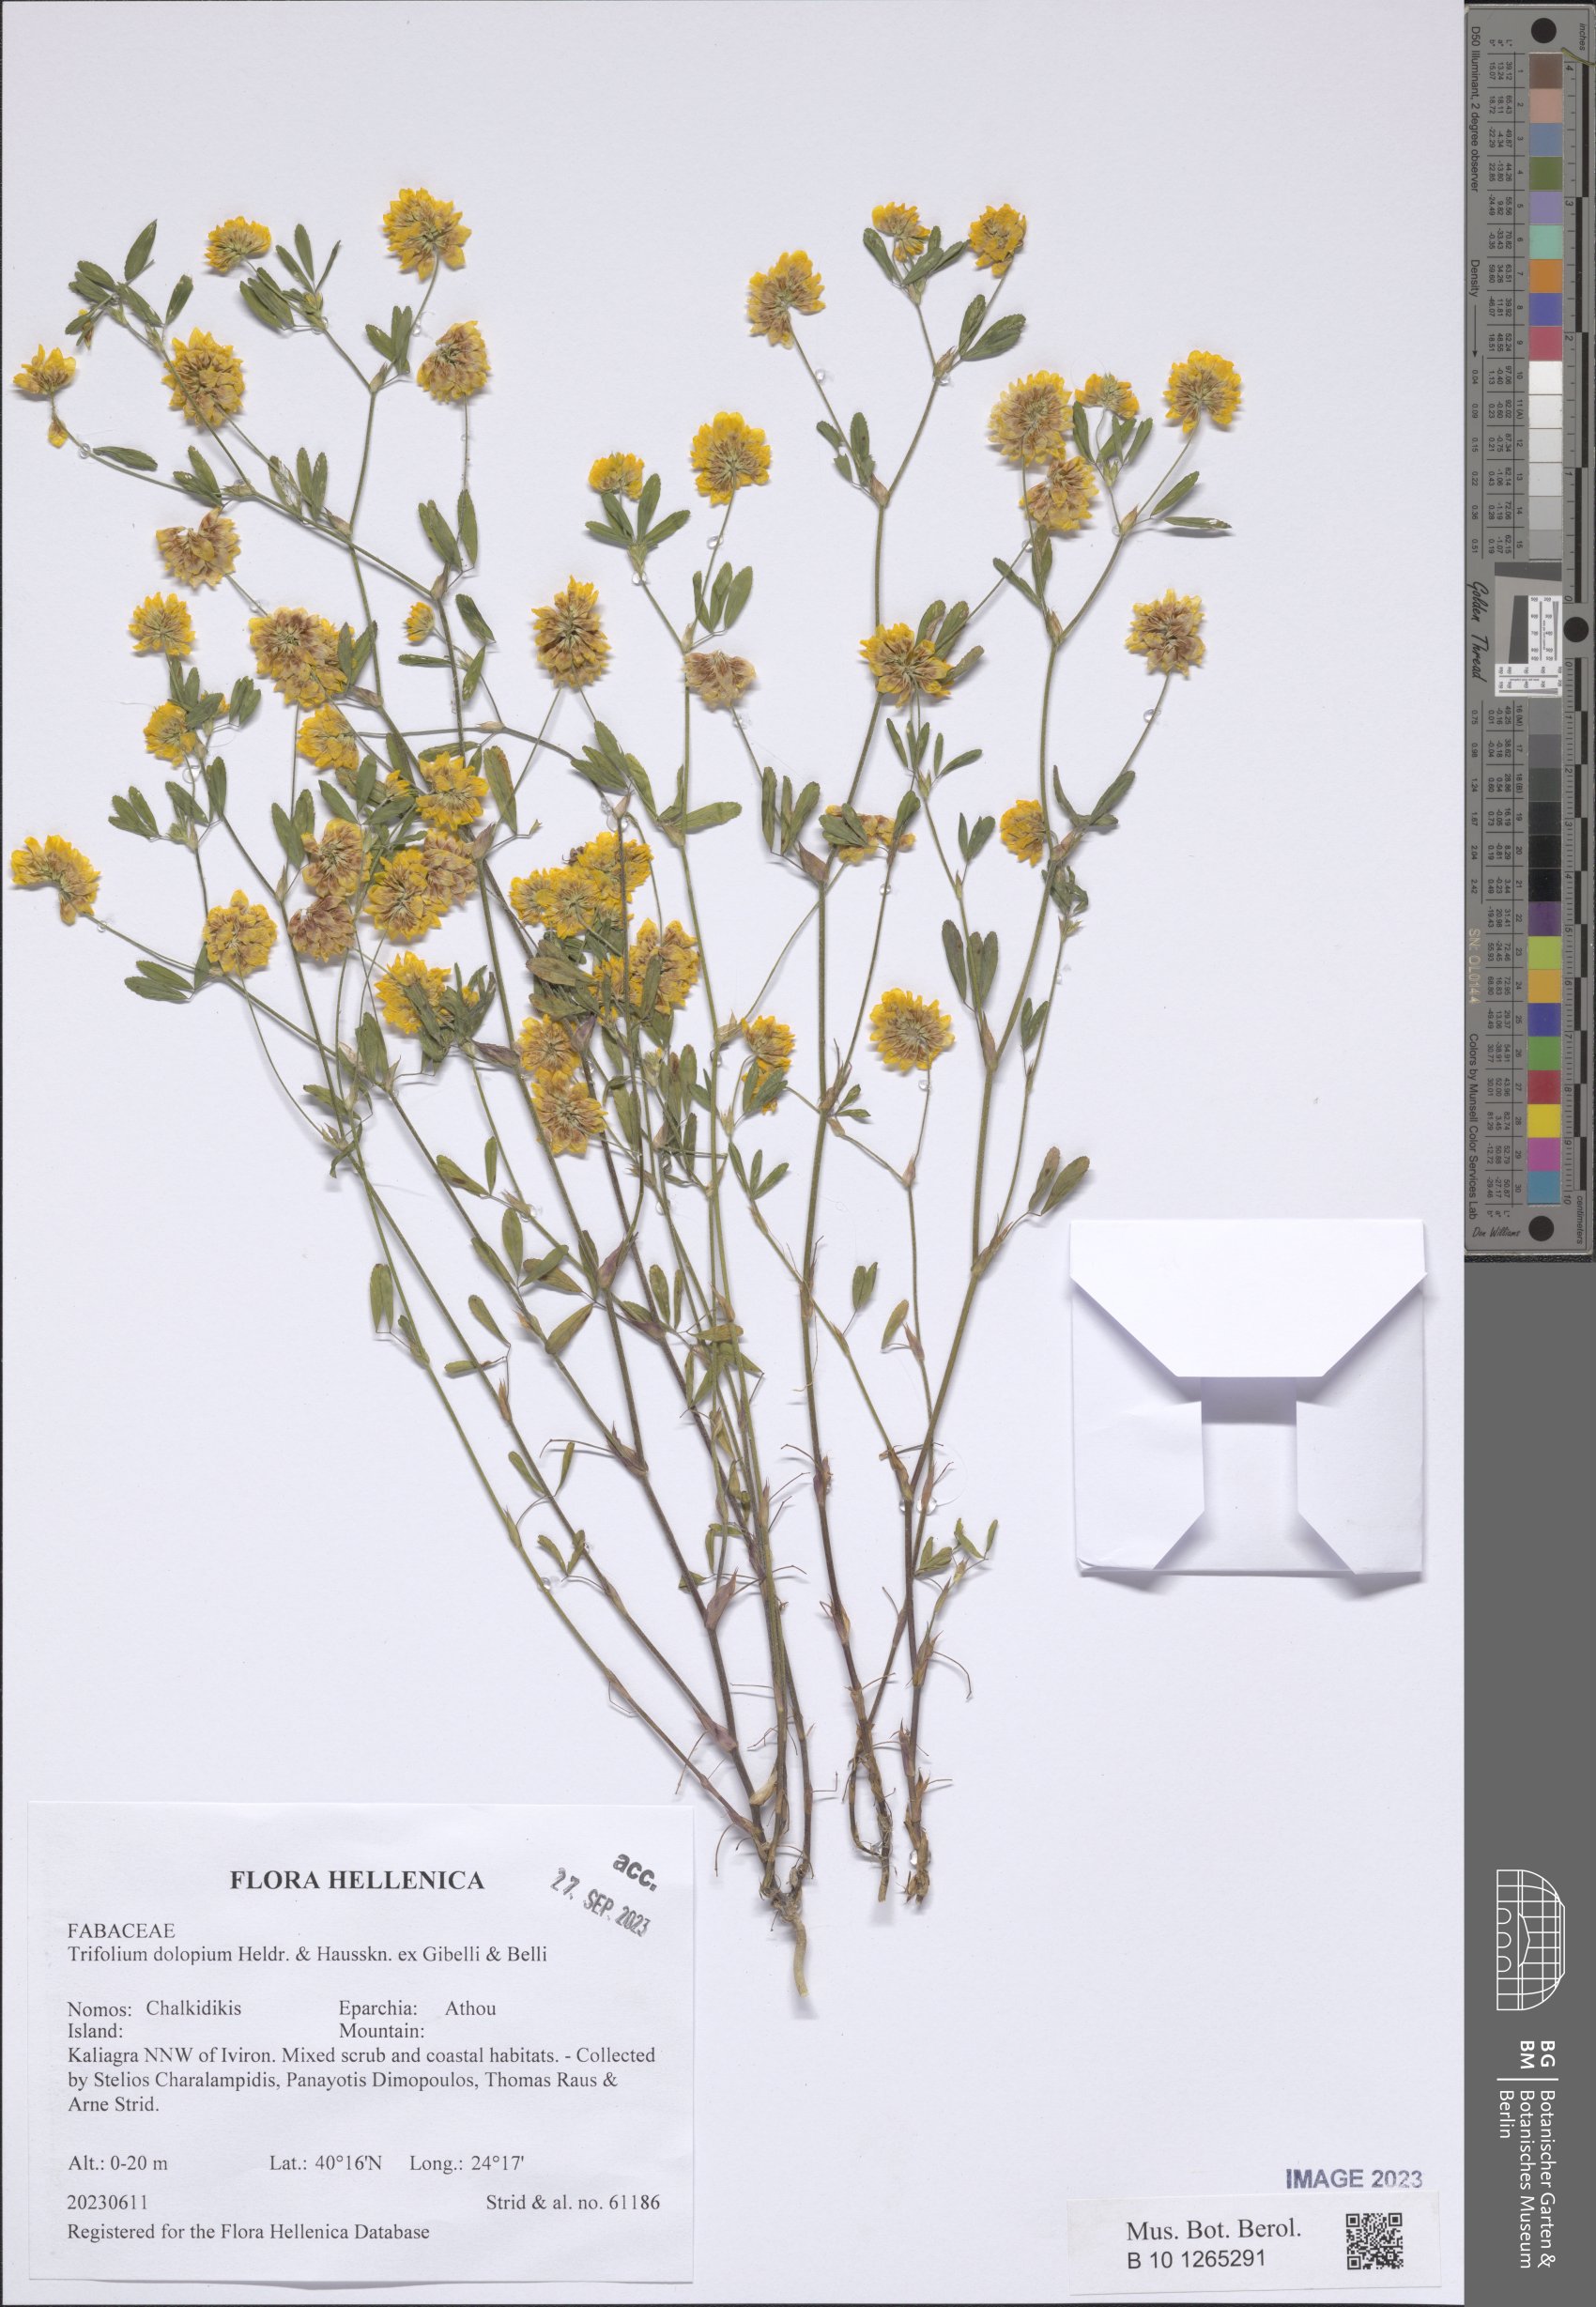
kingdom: Plantae
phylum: Tracheophyta
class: Magnoliopsida
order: Fabales
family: Fabaceae
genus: Trifolium
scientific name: Trifolium dolopium
